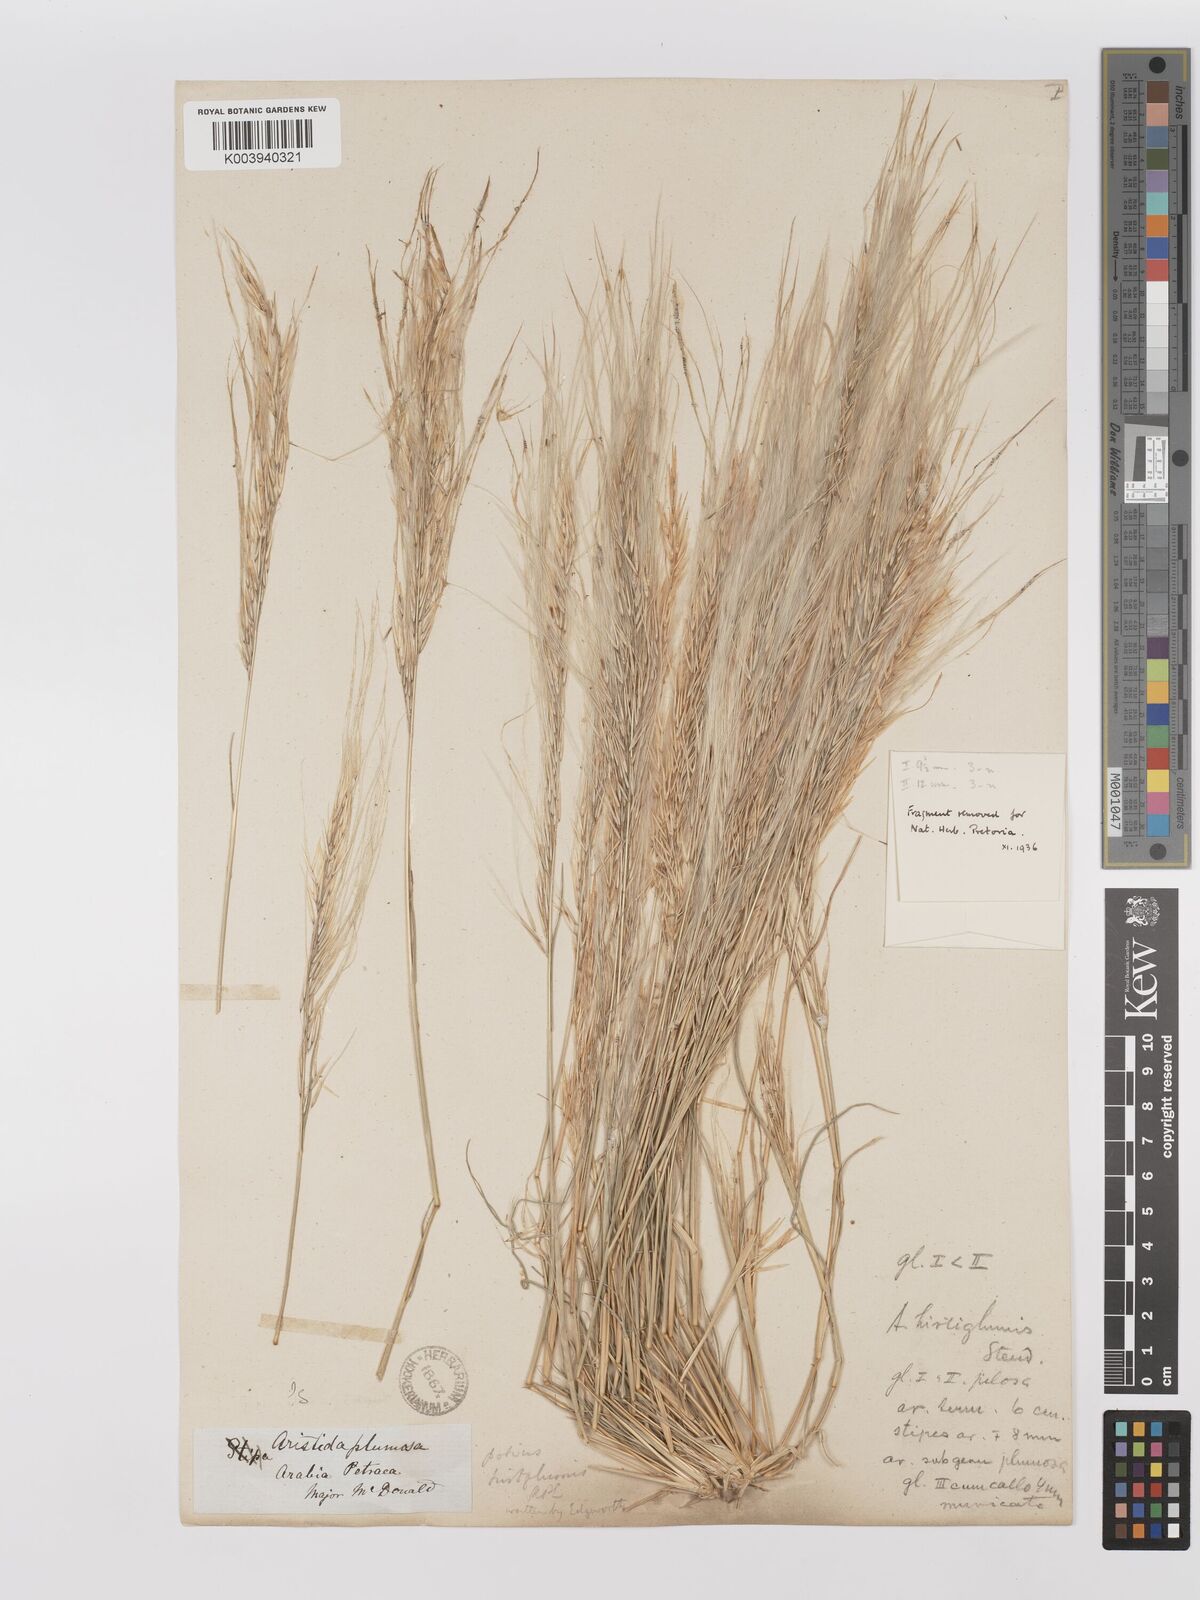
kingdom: Plantae
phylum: Tracheophyta
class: Liliopsida
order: Poales
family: Poaceae
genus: Stipagrostis
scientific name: Stipagrostis hirtigluma
